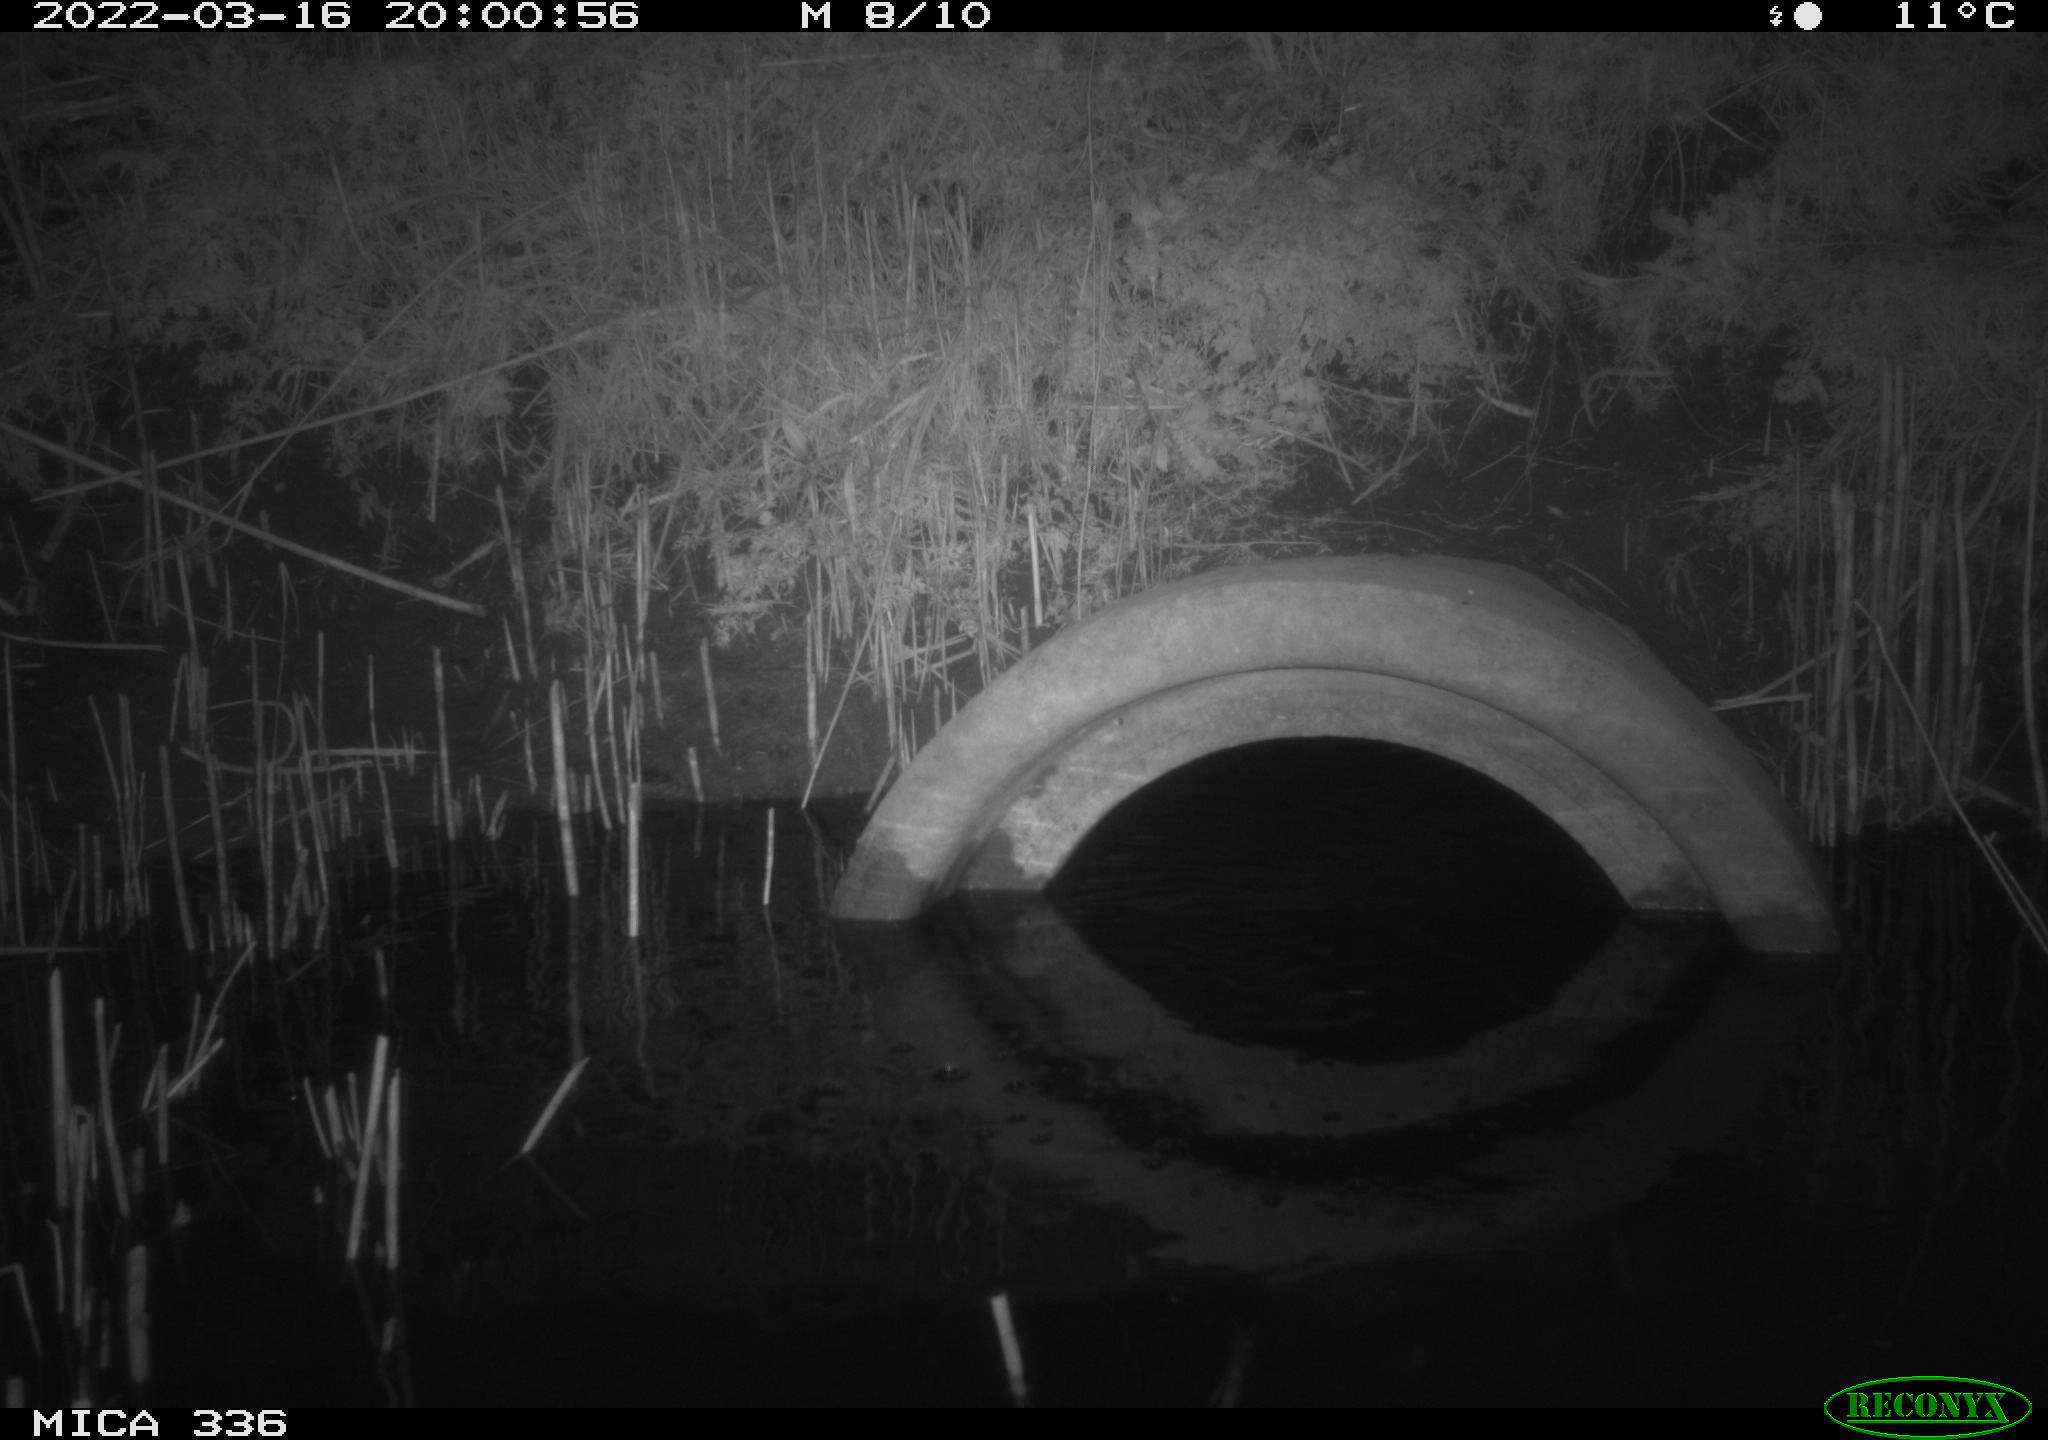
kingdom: Animalia
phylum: Chordata
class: Aves
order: Pelecaniformes
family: Ardeidae
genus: Ardea
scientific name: Ardea cinerea
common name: Grey heron
